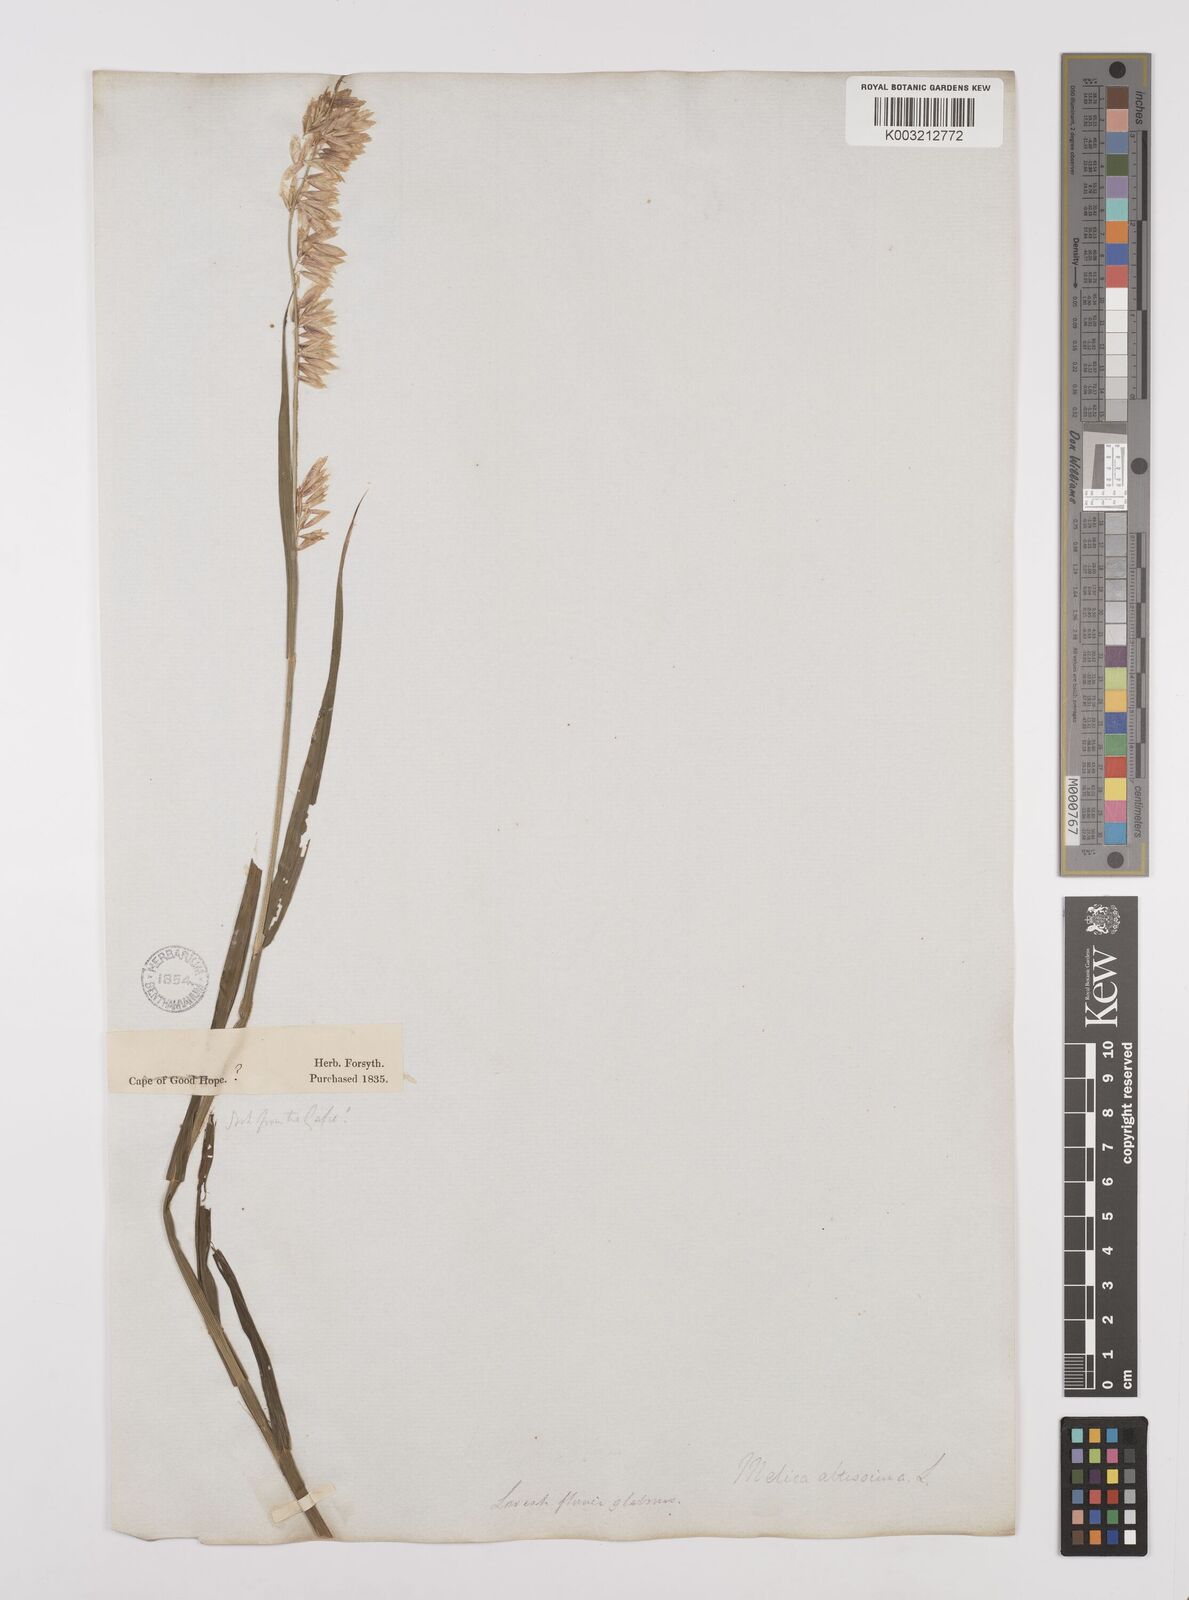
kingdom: Plantae
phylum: Tracheophyta
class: Liliopsida
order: Poales
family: Poaceae
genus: Melica
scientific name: Melica altissima
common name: Siberian melicgrass
